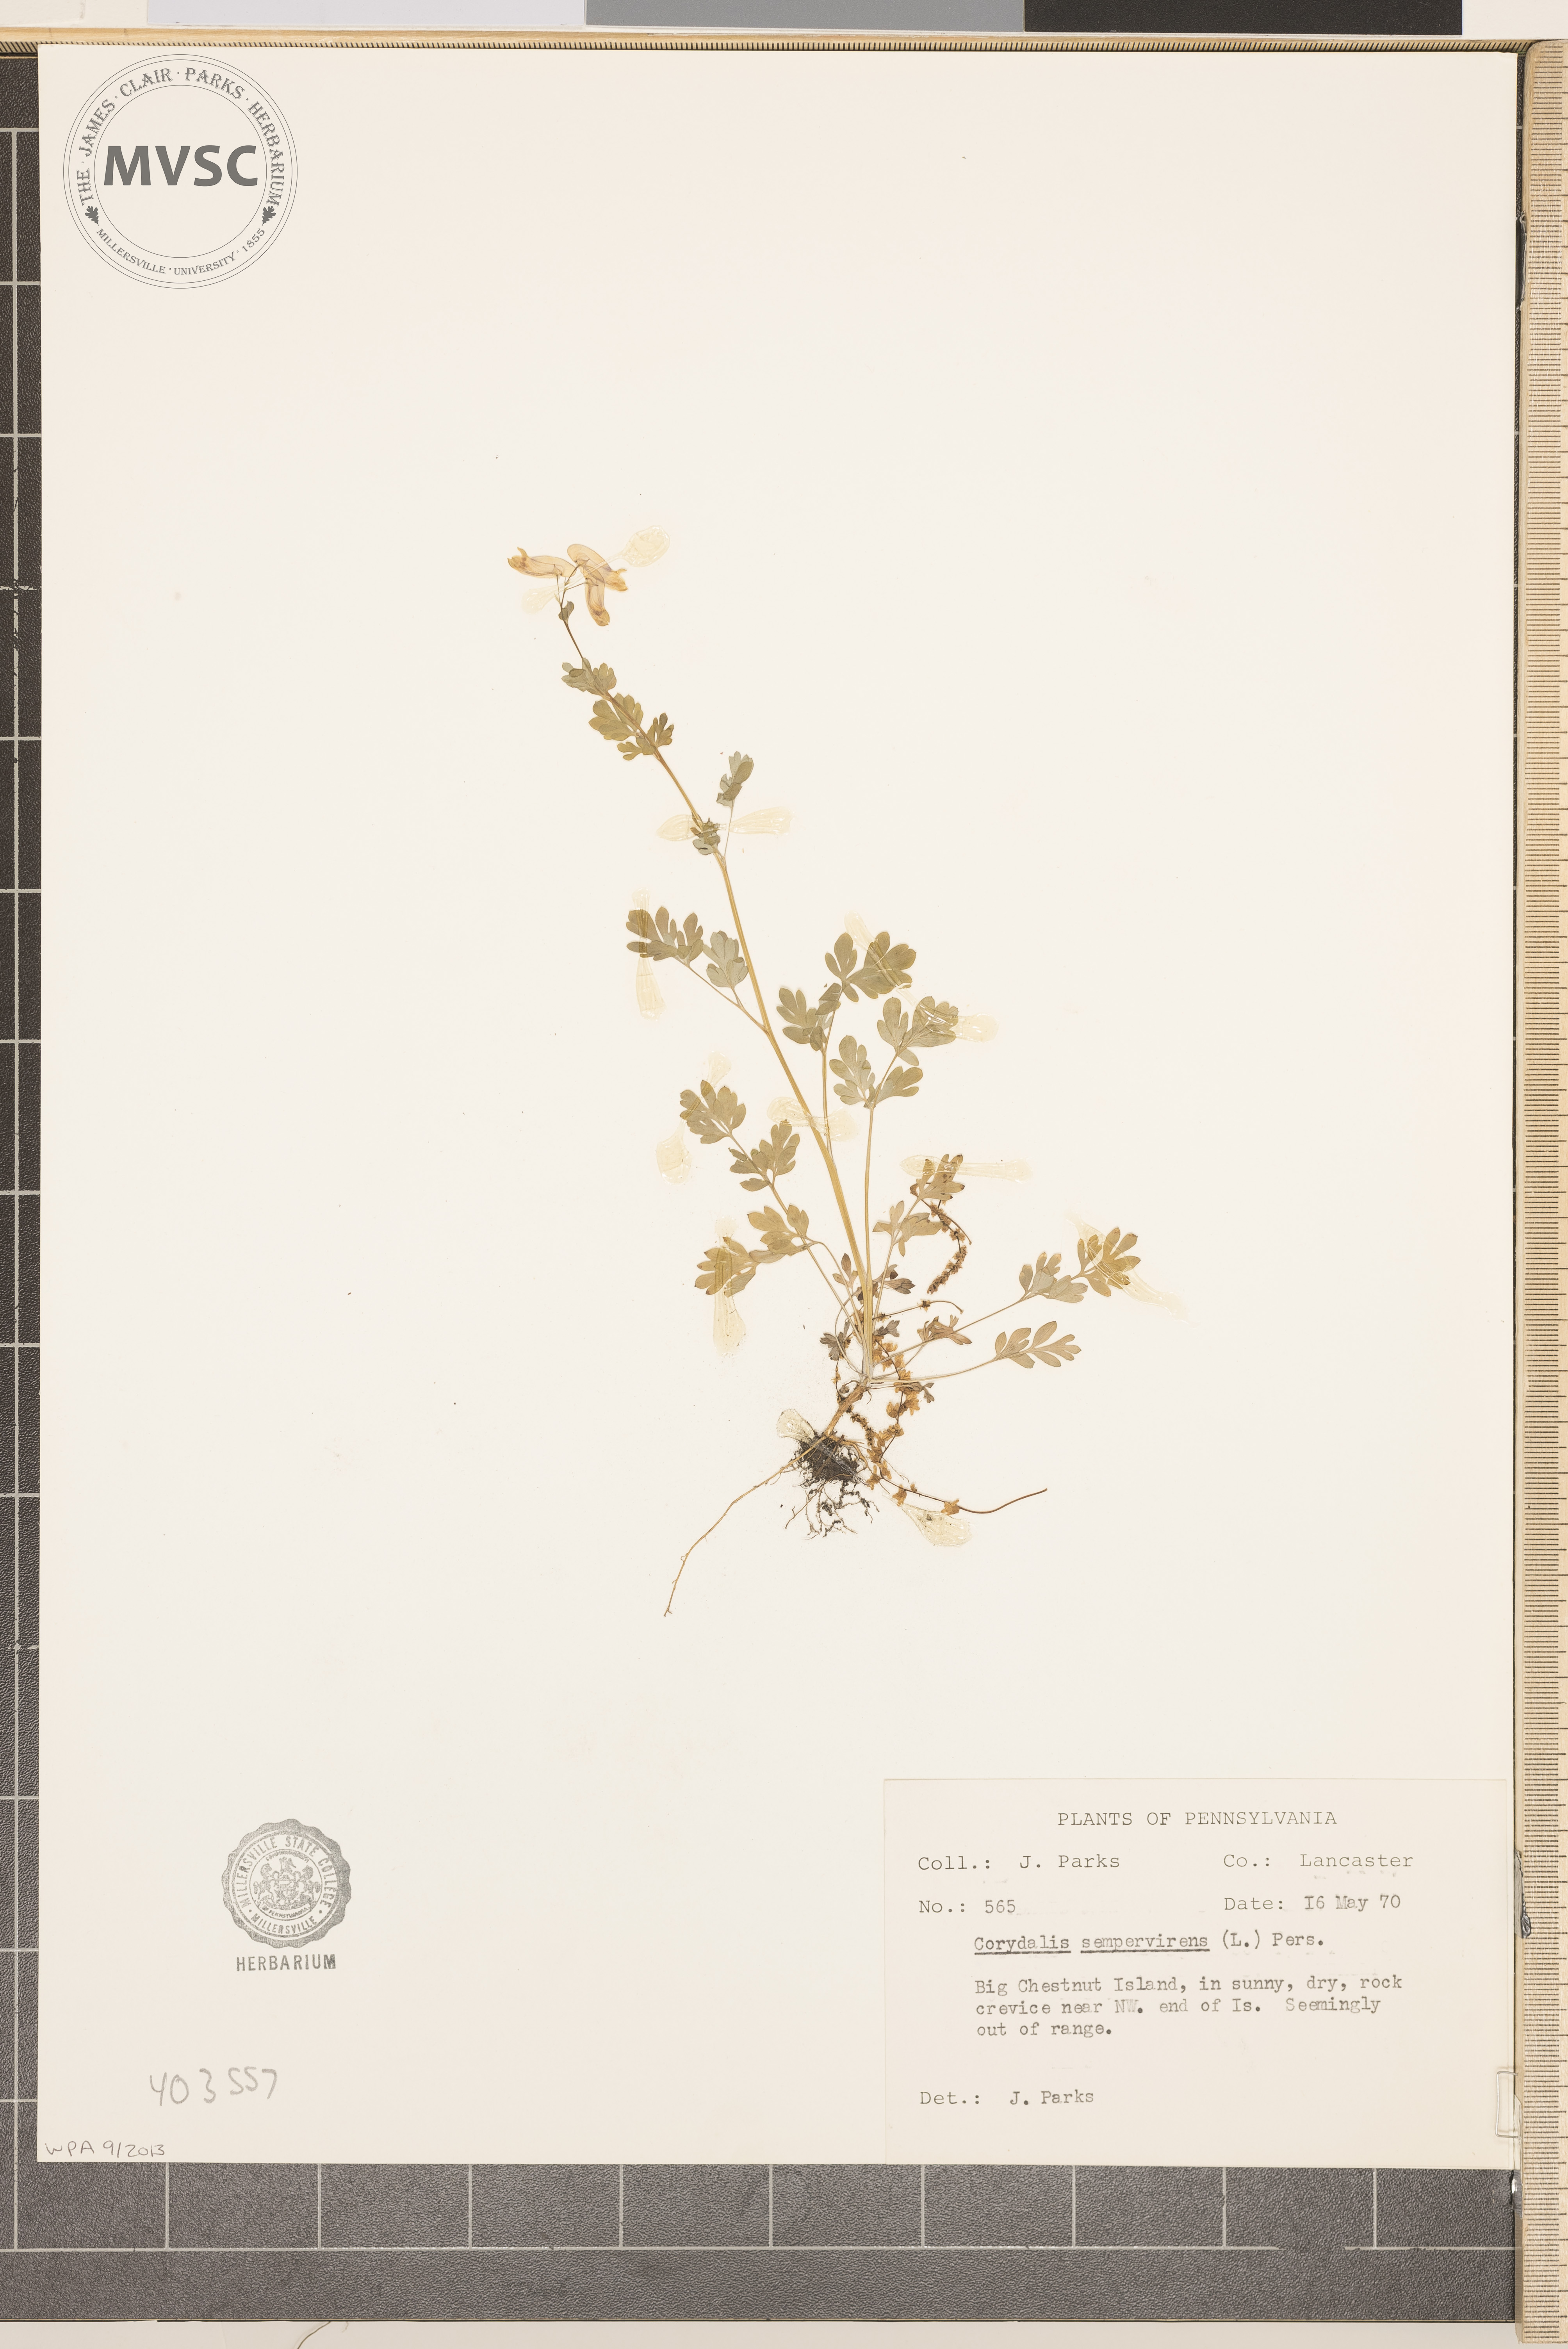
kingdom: Plantae
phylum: Tracheophyta
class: Magnoliopsida
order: Ranunculales
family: Papaveraceae
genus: Capnoides
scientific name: Capnoides sempervirens
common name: Rock harlequin
